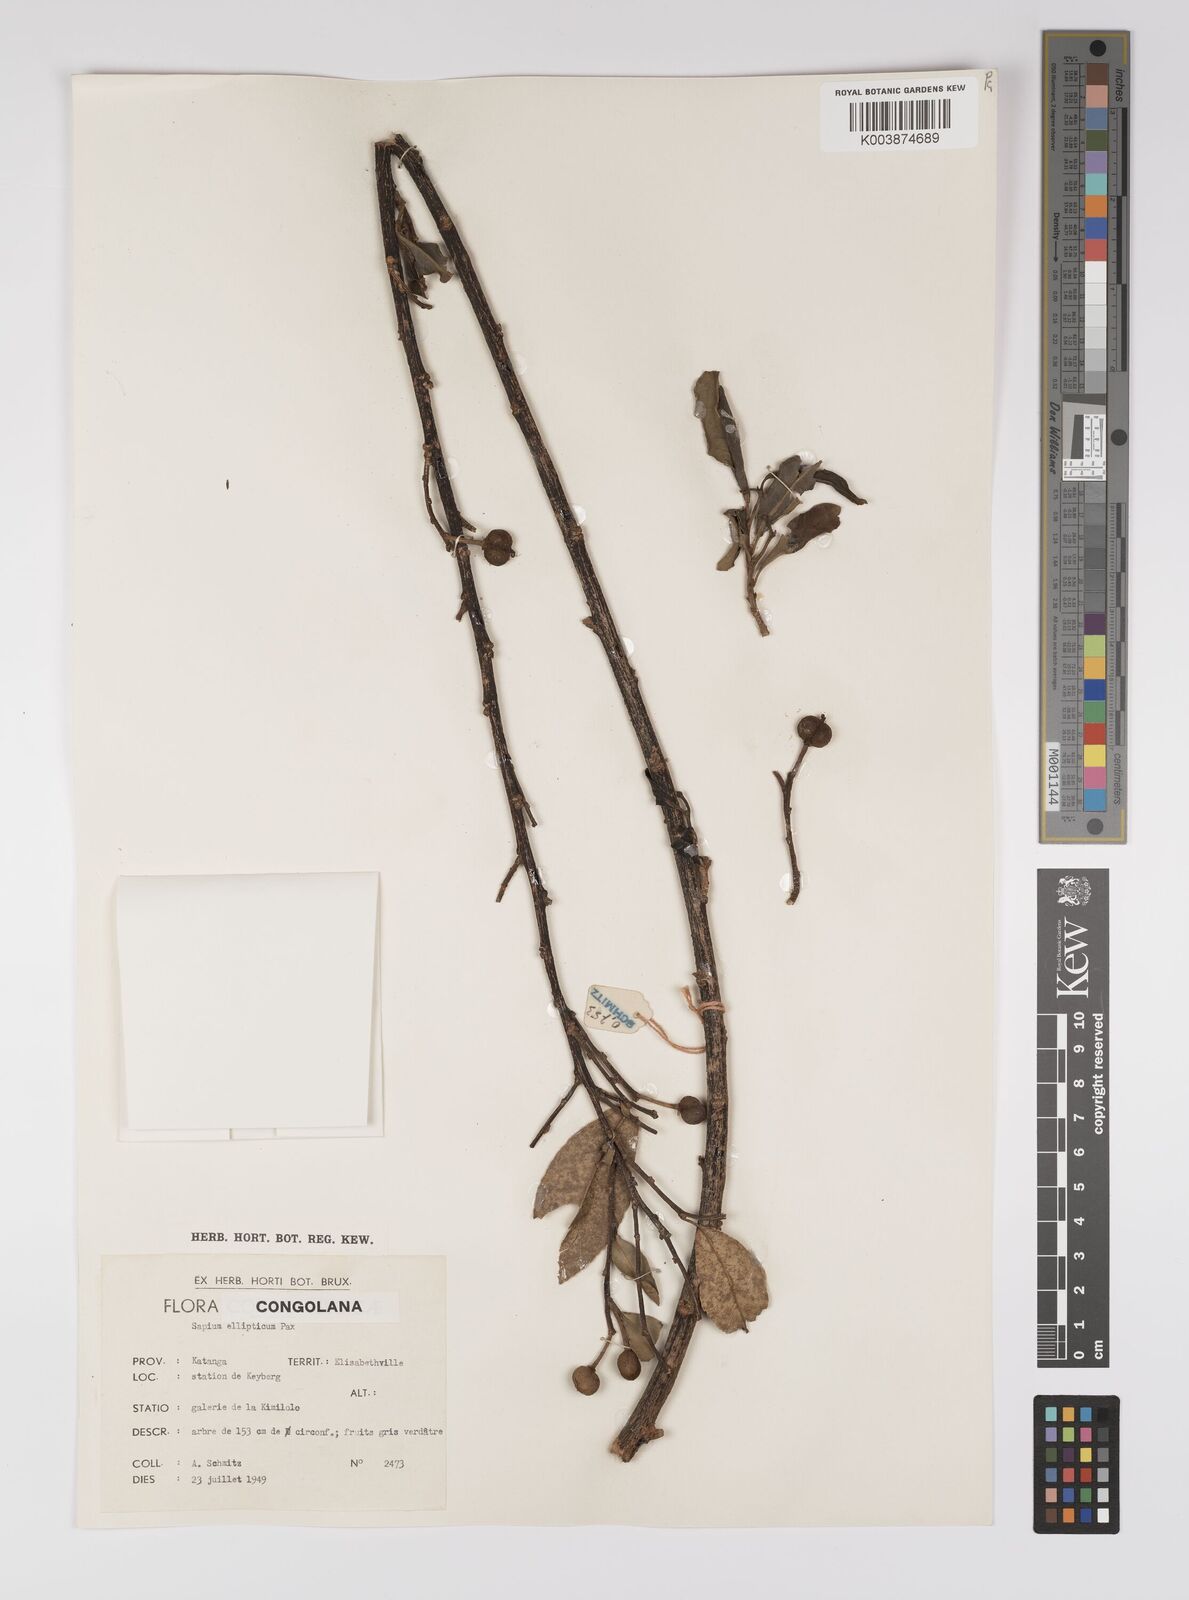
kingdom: Plantae
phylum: Tracheophyta
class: Magnoliopsida
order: Malpighiales
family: Euphorbiaceae
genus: Shirakiopsis
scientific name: Shirakiopsis elliptica
